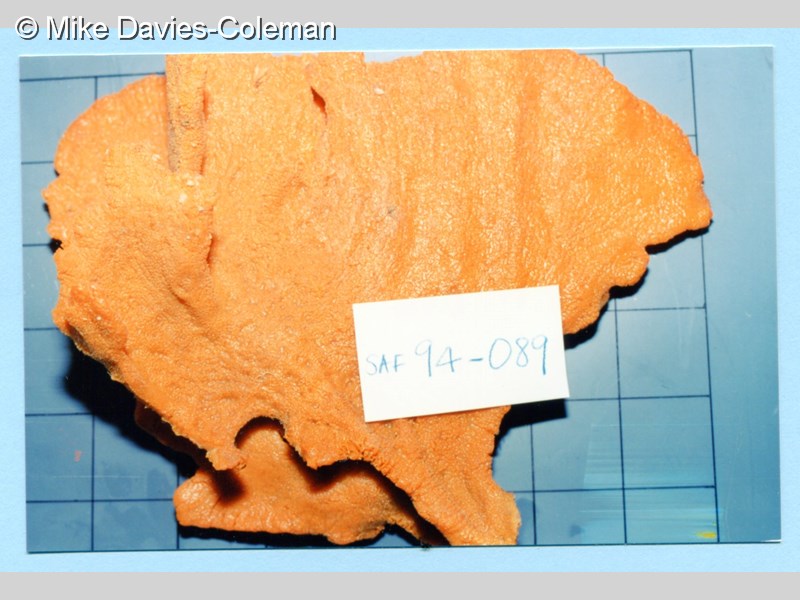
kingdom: Animalia
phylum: Porifera
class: Demospongiae
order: Poecilosclerida
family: Isodictyidae
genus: Isodictya
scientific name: Isodictya grandis
